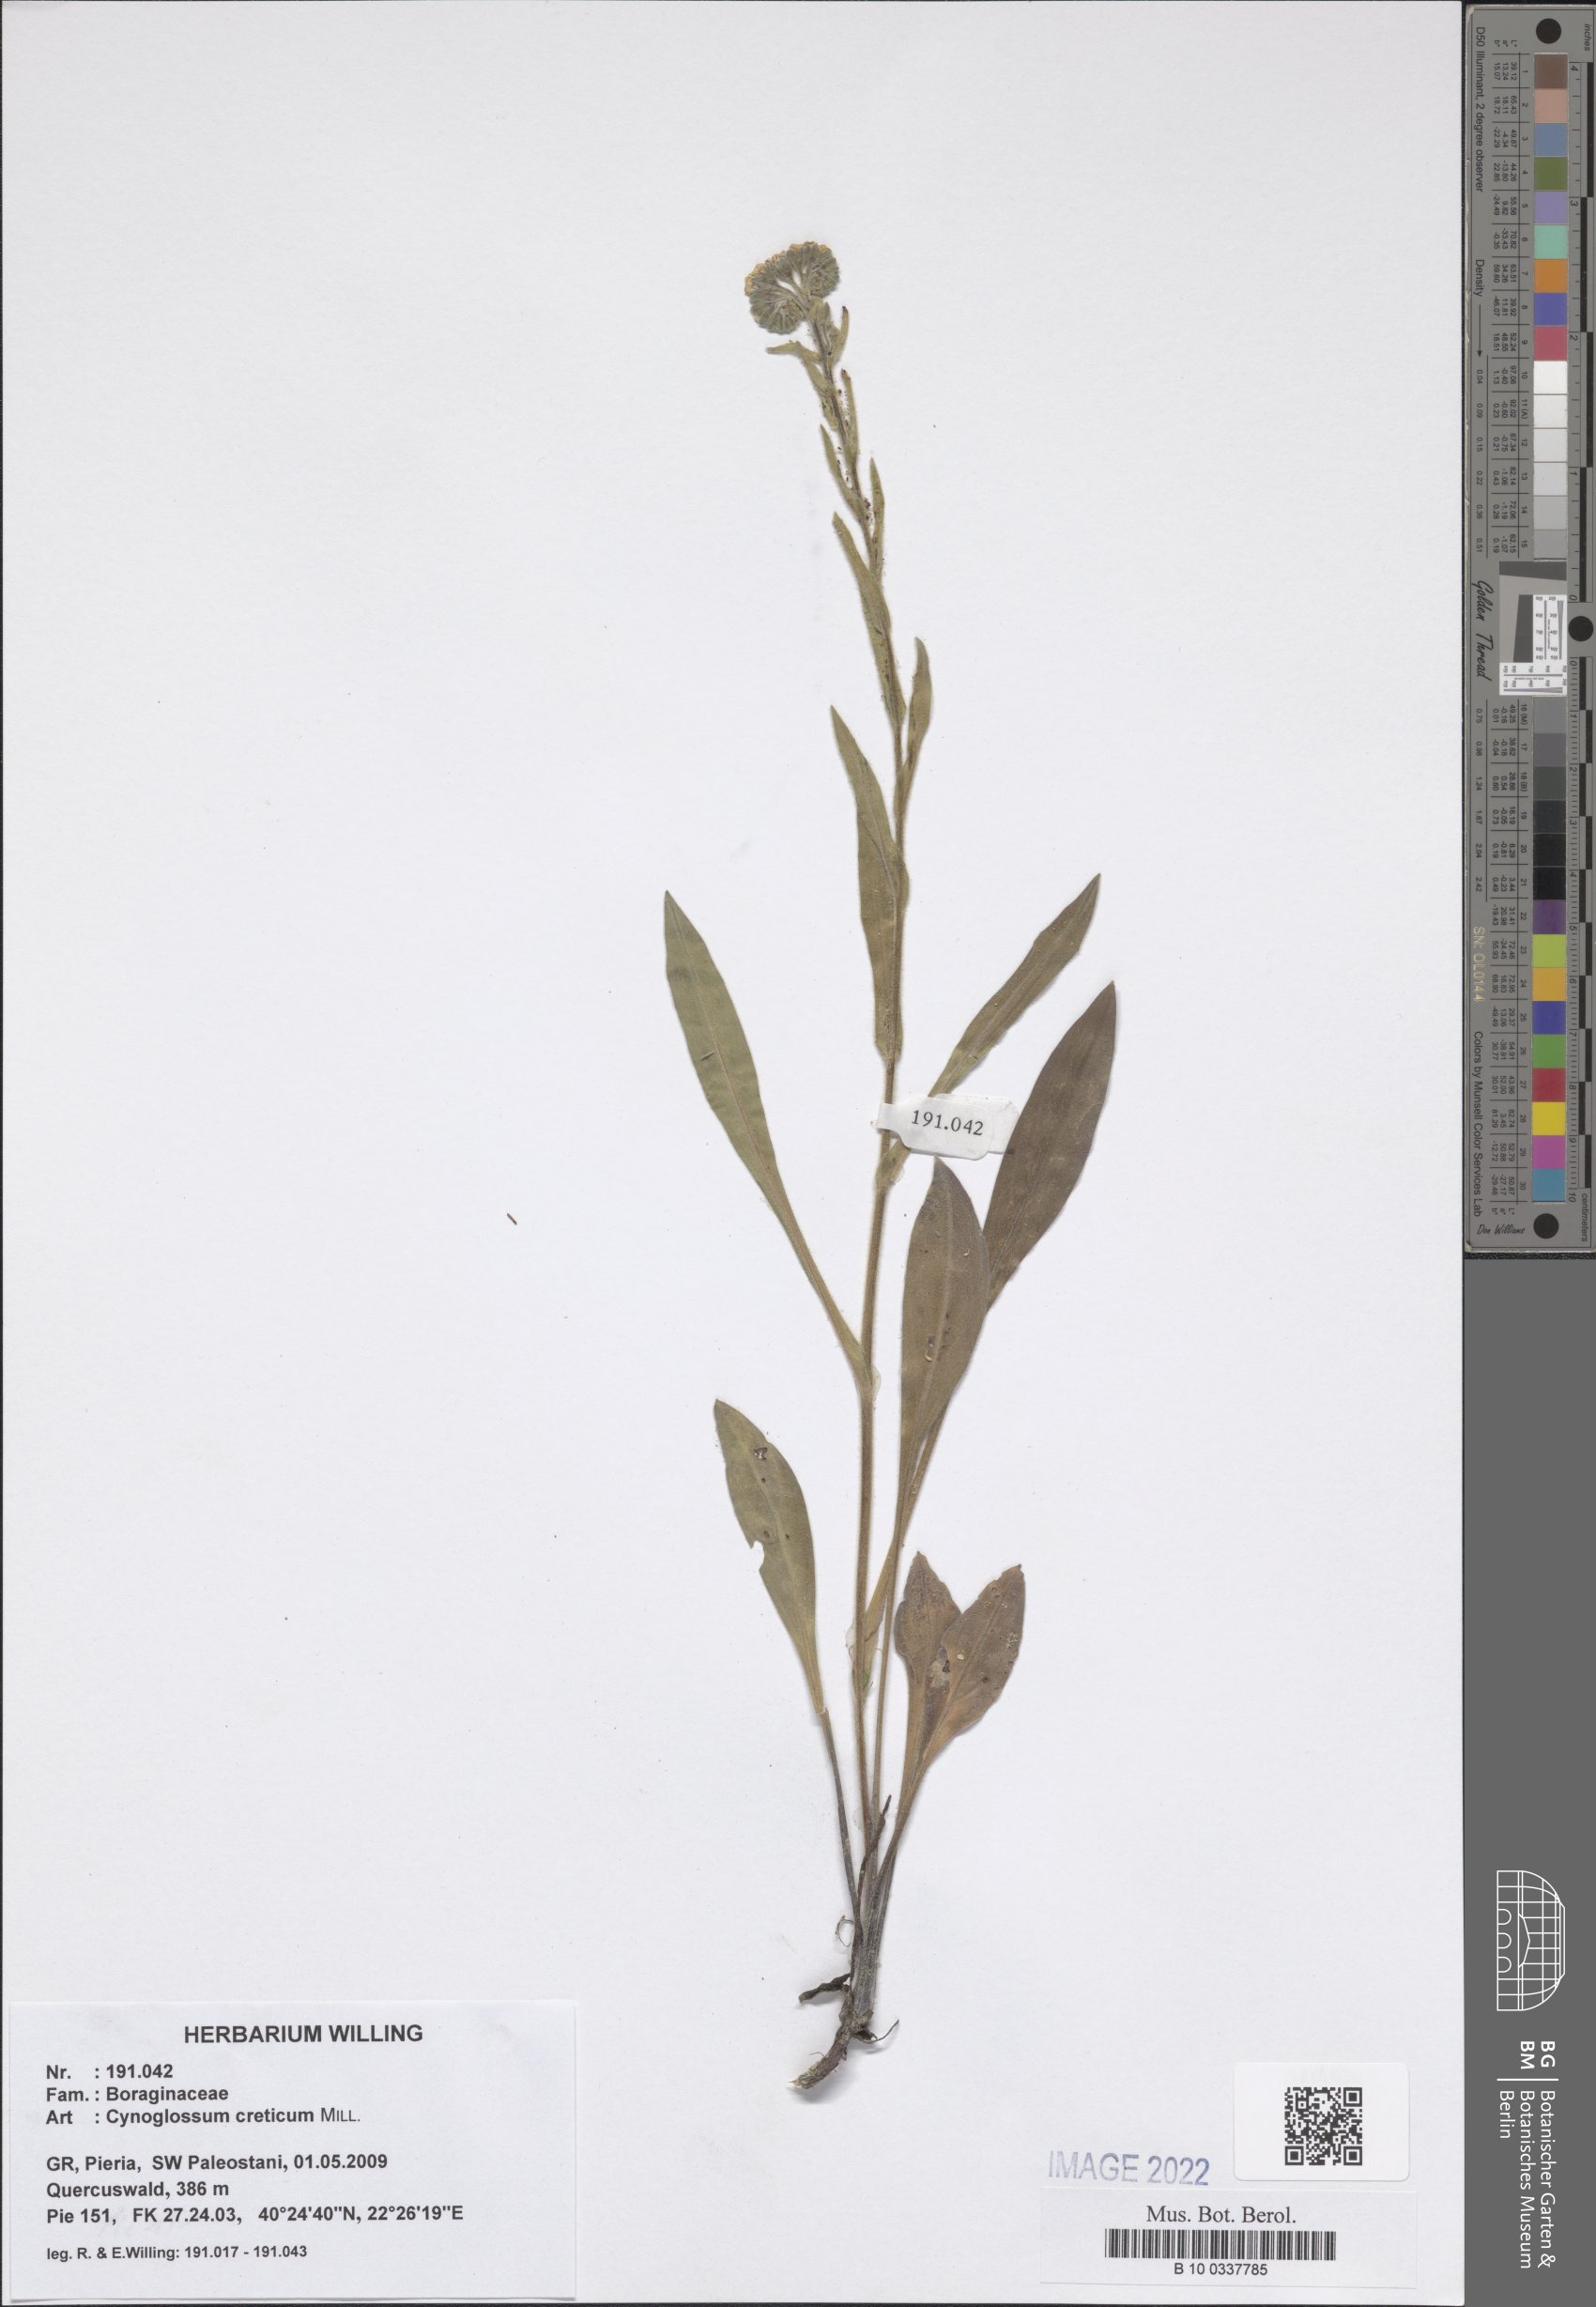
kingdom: Plantae
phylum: Tracheophyta
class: Magnoliopsida
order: Boraginales
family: Boraginaceae
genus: Cynoglossum
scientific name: Cynoglossum creticum
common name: Blue hound's tongue
